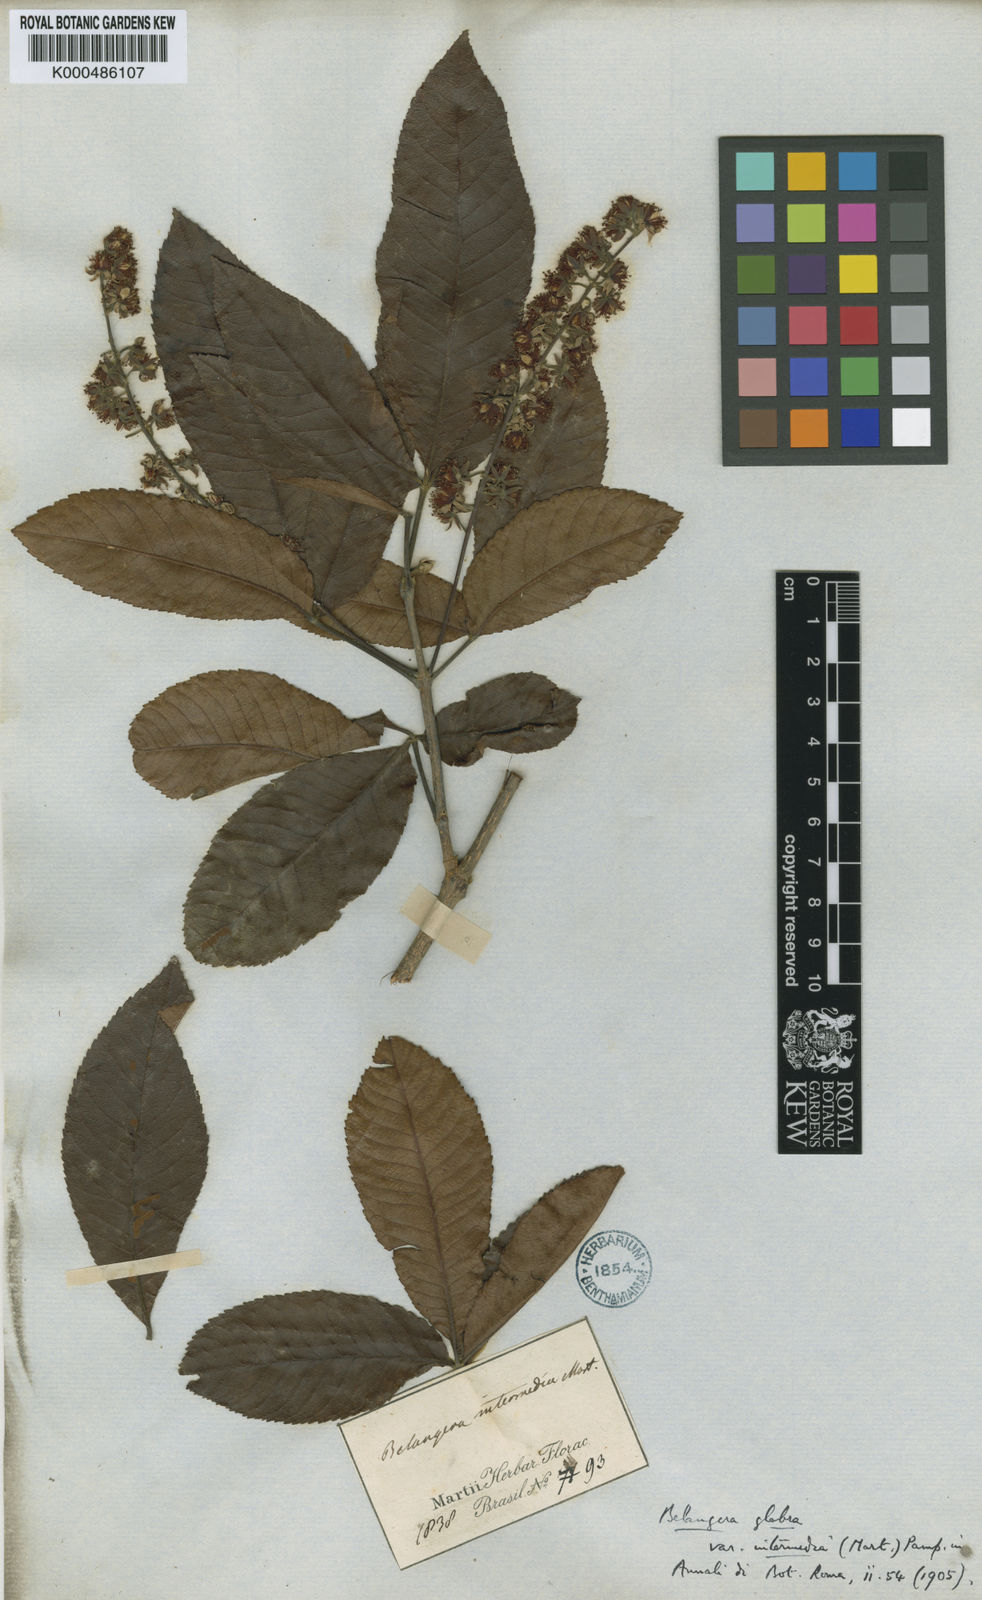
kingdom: Plantae
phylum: Tracheophyta
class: Magnoliopsida
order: Oxalidales
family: Cunoniaceae
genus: Lamanonia
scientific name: Lamanonia ternata
